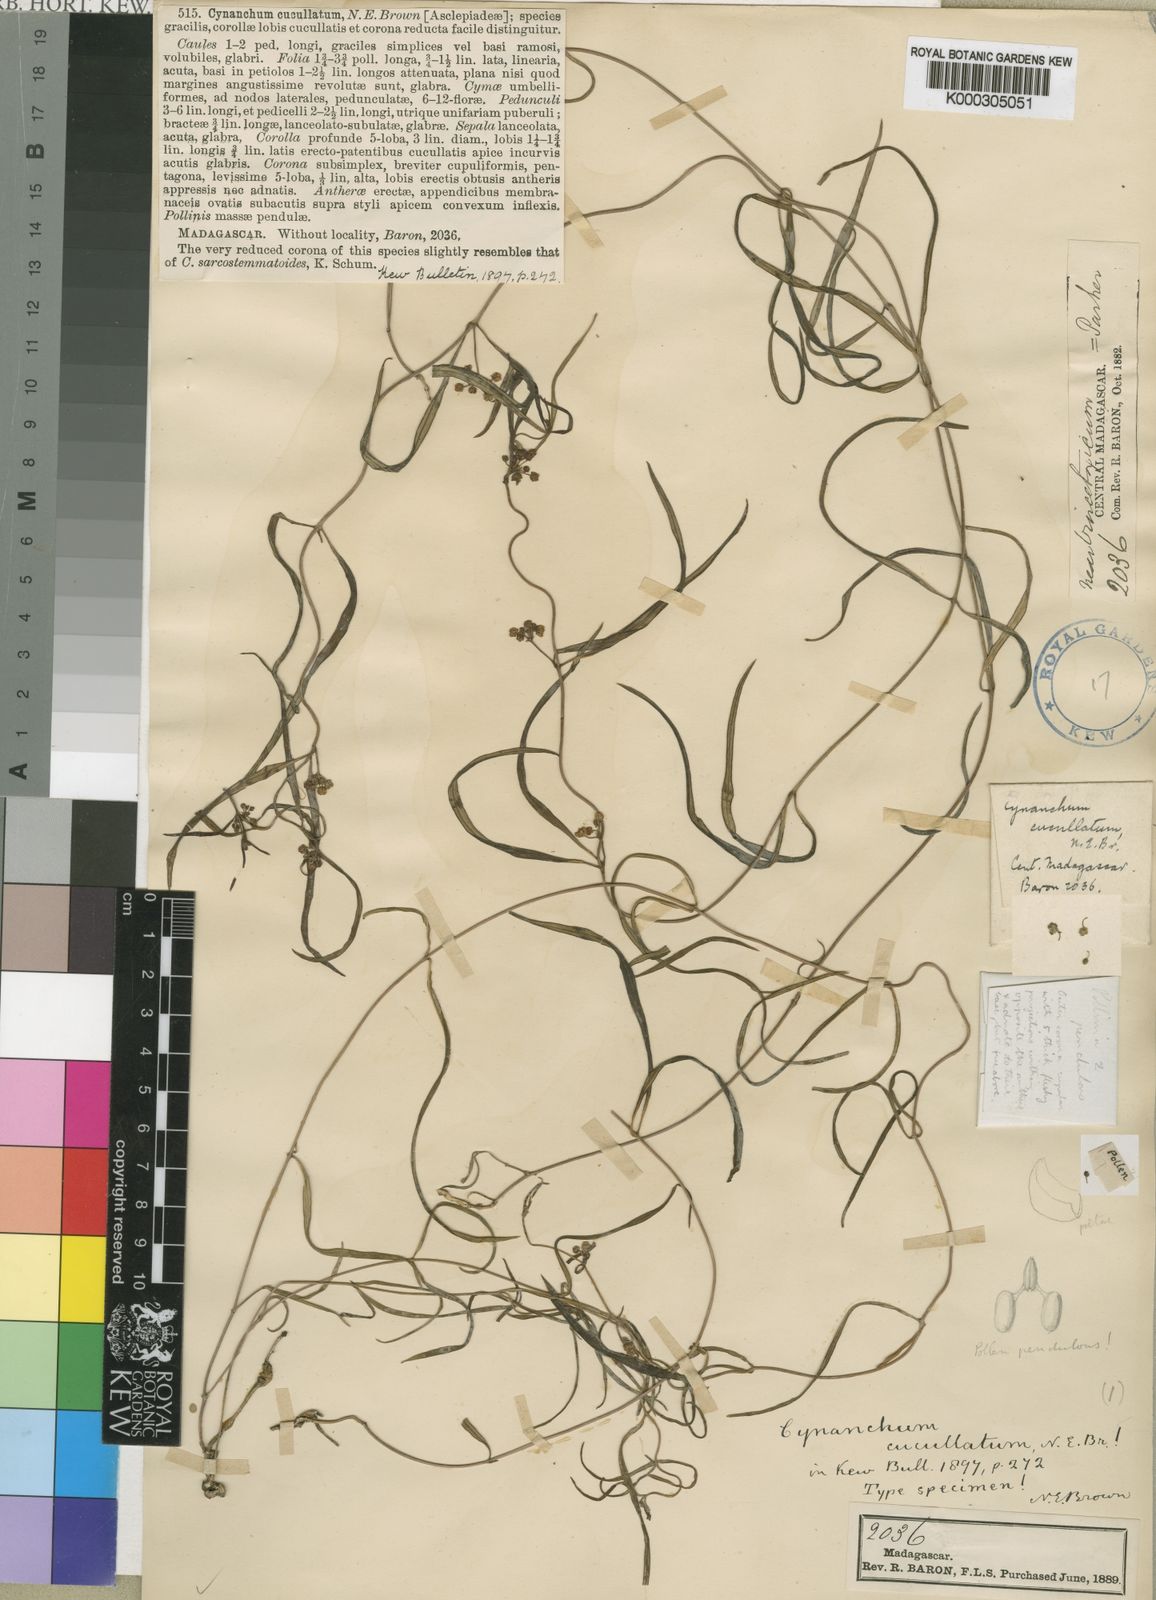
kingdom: Plantae
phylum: Tracheophyta
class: Magnoliopsida
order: Gentianales
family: Apocynaceae
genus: Cynanchum
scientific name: Cynanchum cucullatum
